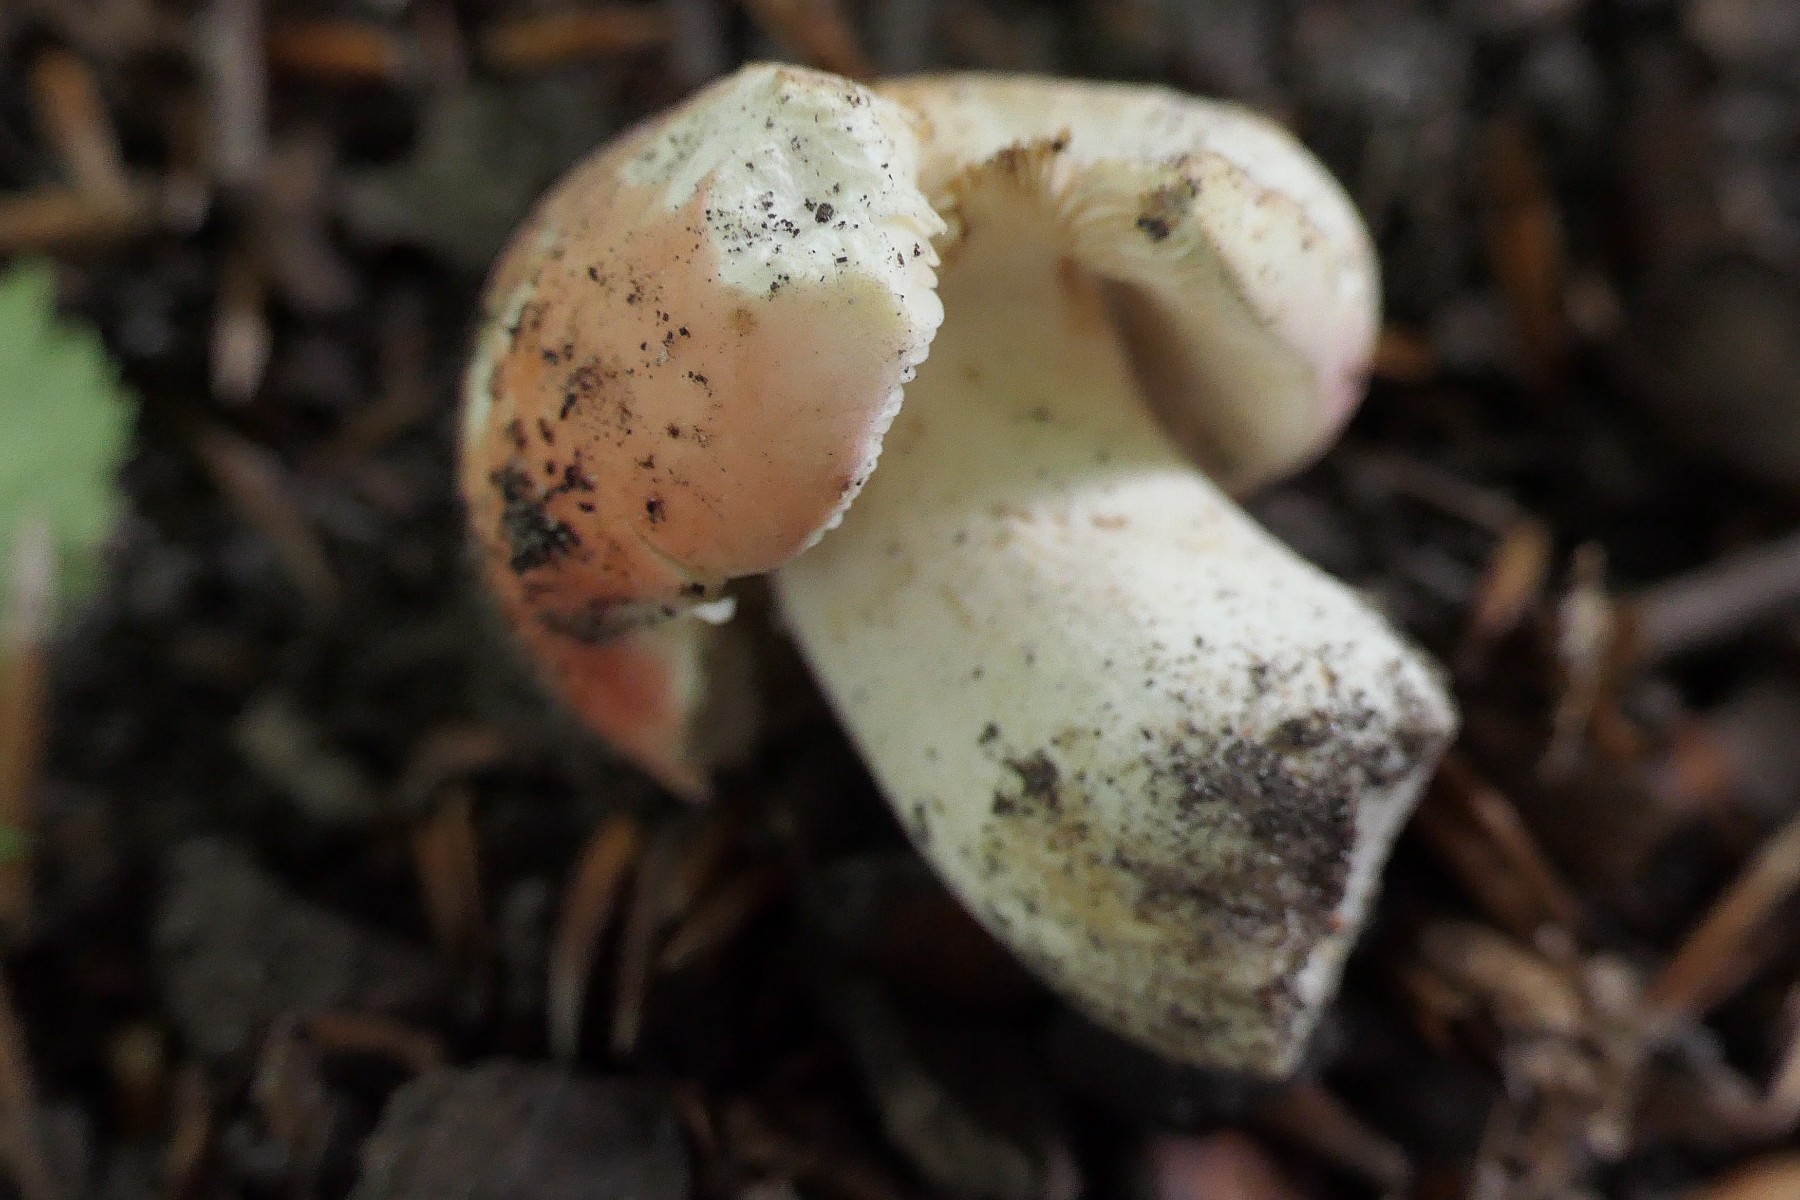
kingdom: Fungi
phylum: Basidiomycota
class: Agaricomycetes
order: Russulales
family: Russulaceae
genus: Russula
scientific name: Russula rosea
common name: fastkødet skørhat
